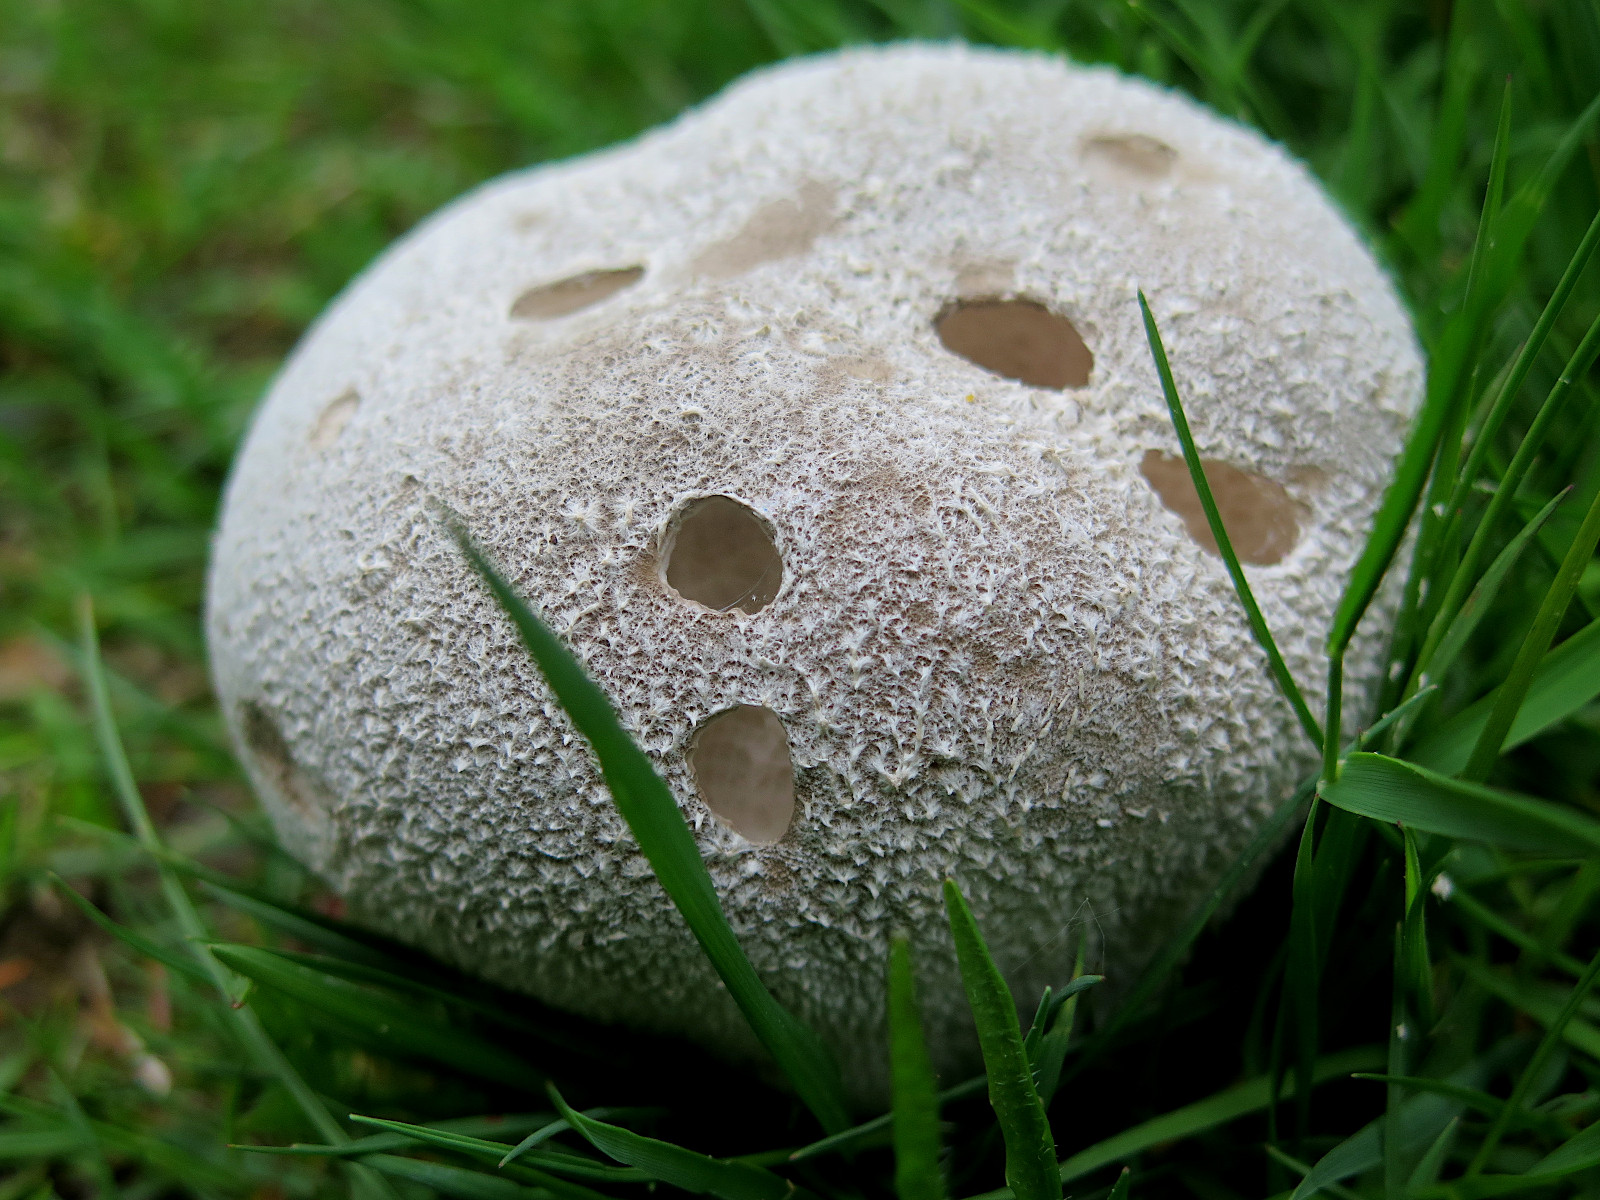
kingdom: Fungi
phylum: Basidiomycota
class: Agaricomycetes
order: Agaricales
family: Lycoperdaceae
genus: Bovistella
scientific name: Bovistella utriformis
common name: skællet støvbold
